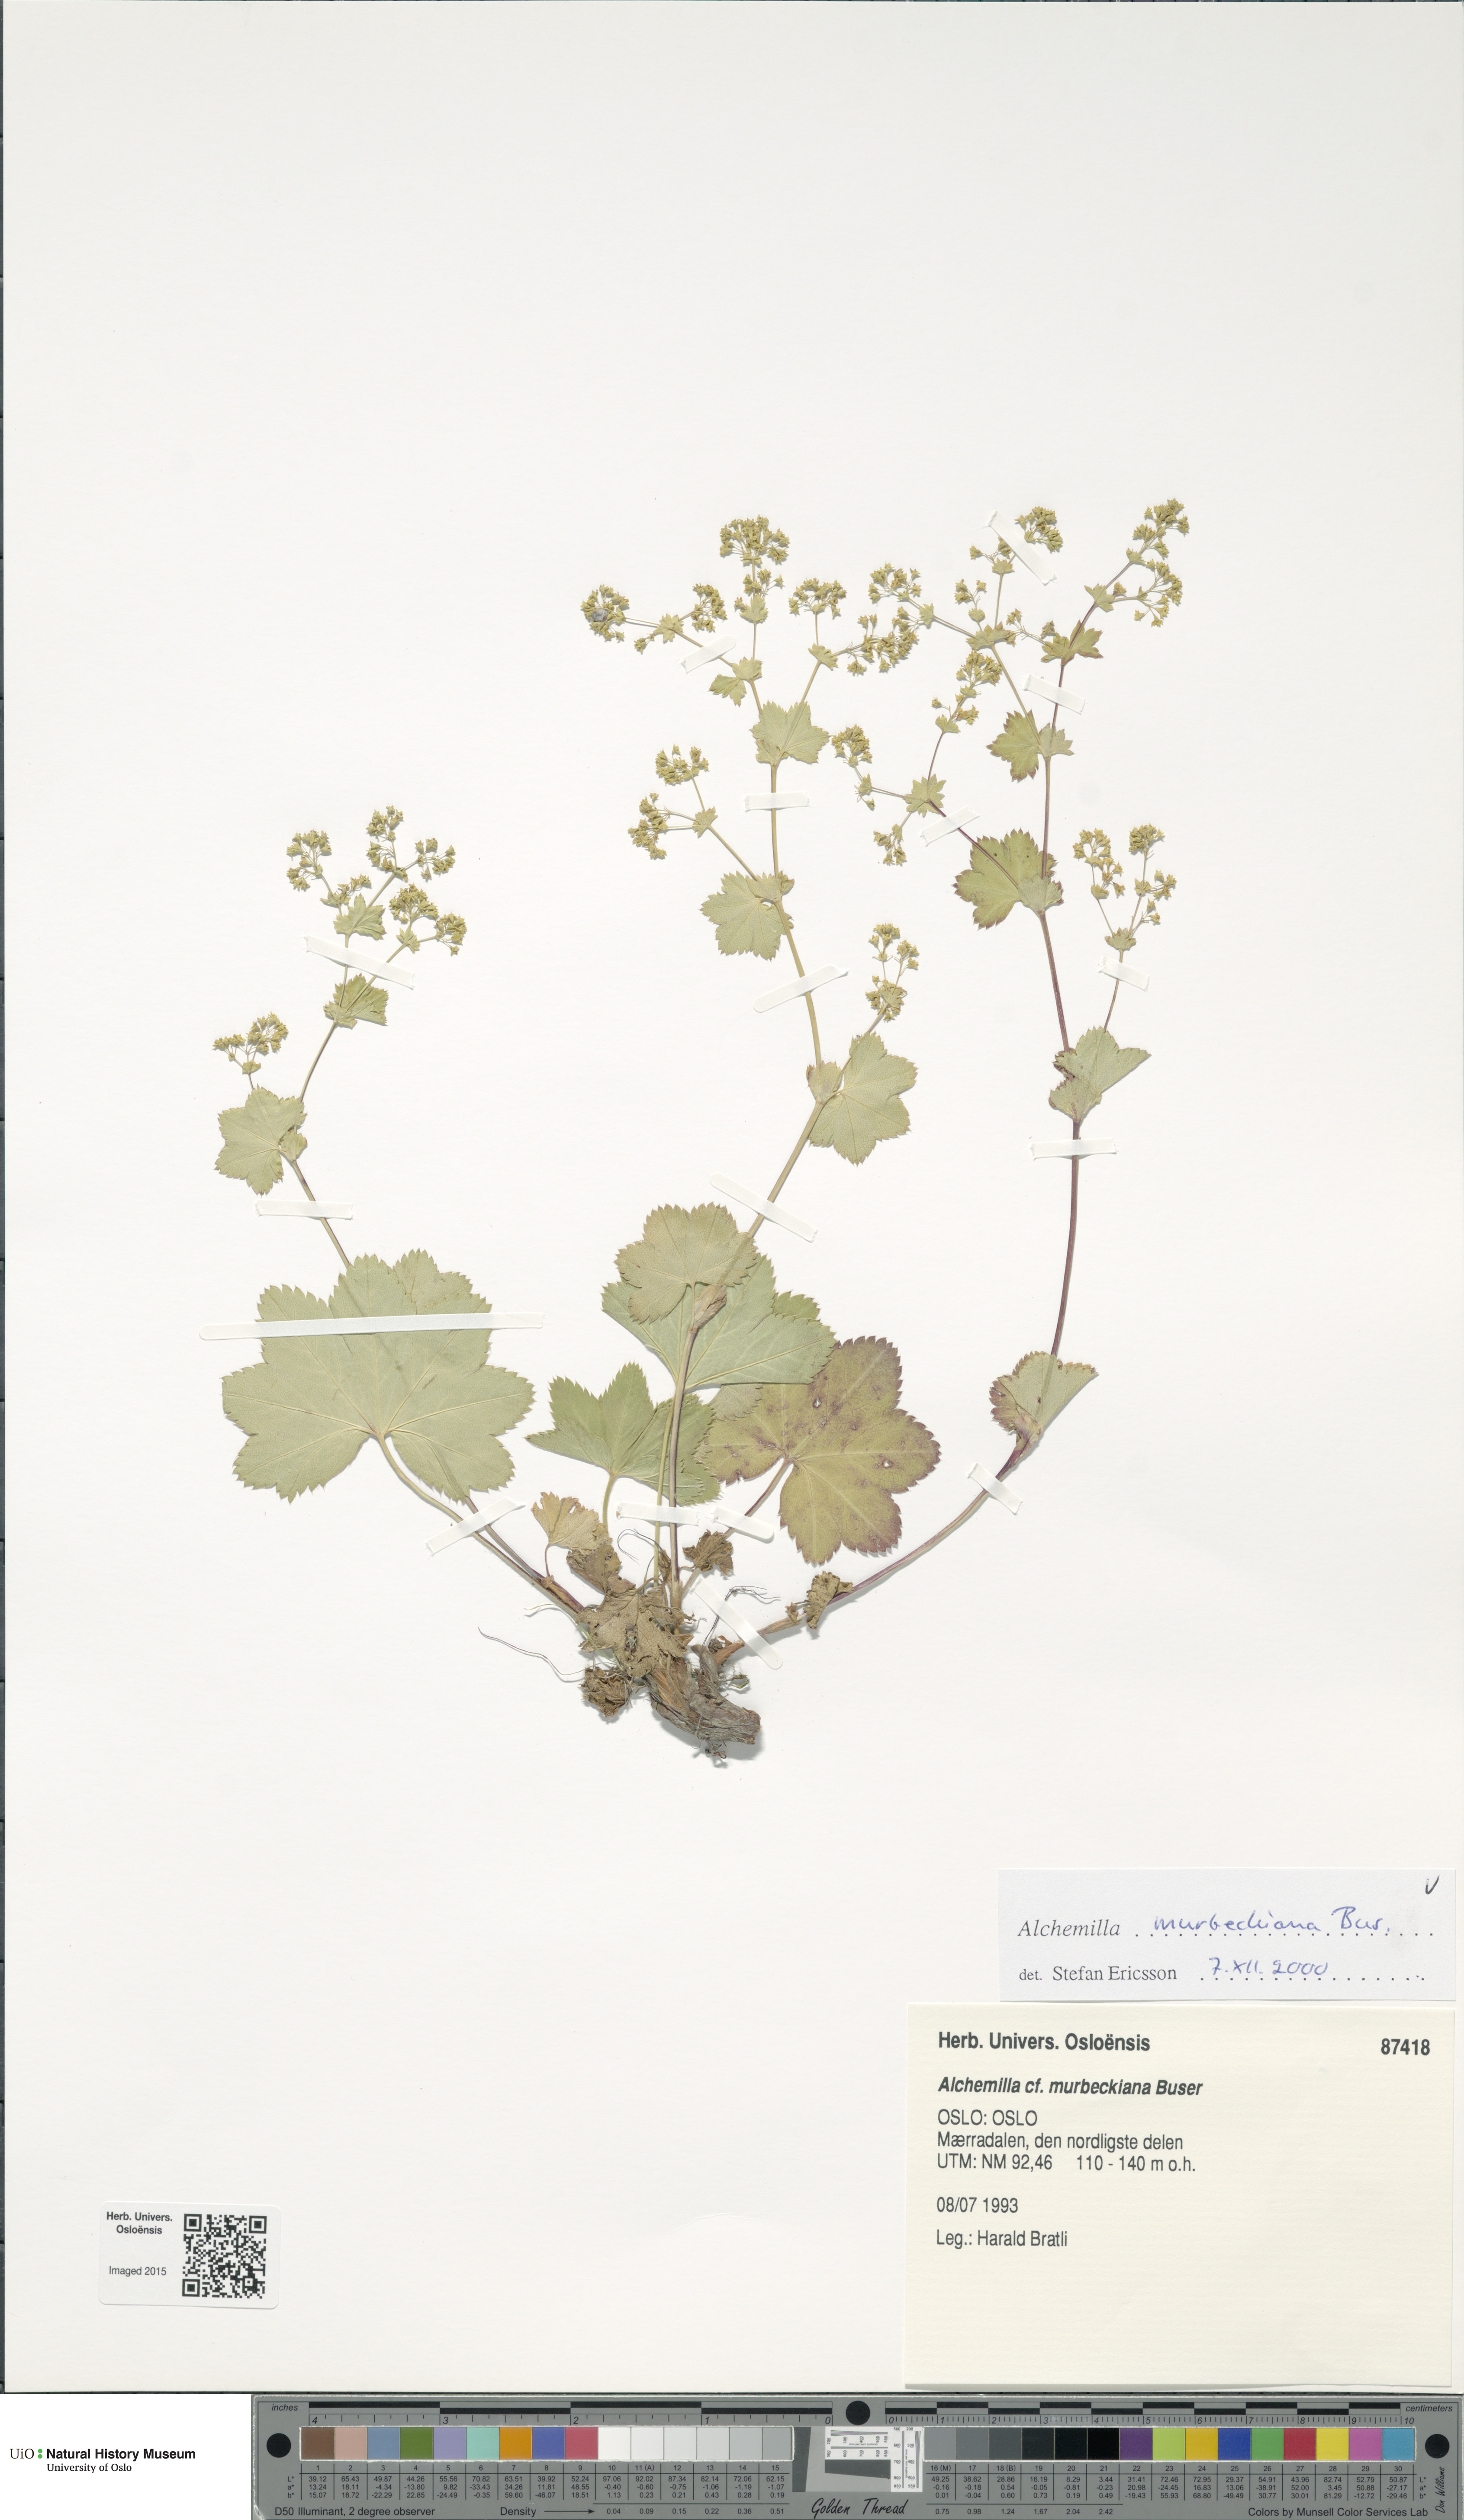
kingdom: Plantae
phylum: Tracheophyta
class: Magnoliopsida
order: Rosales
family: Rosaceae
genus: Alchemilla
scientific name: Alchemilla murbeckiana
